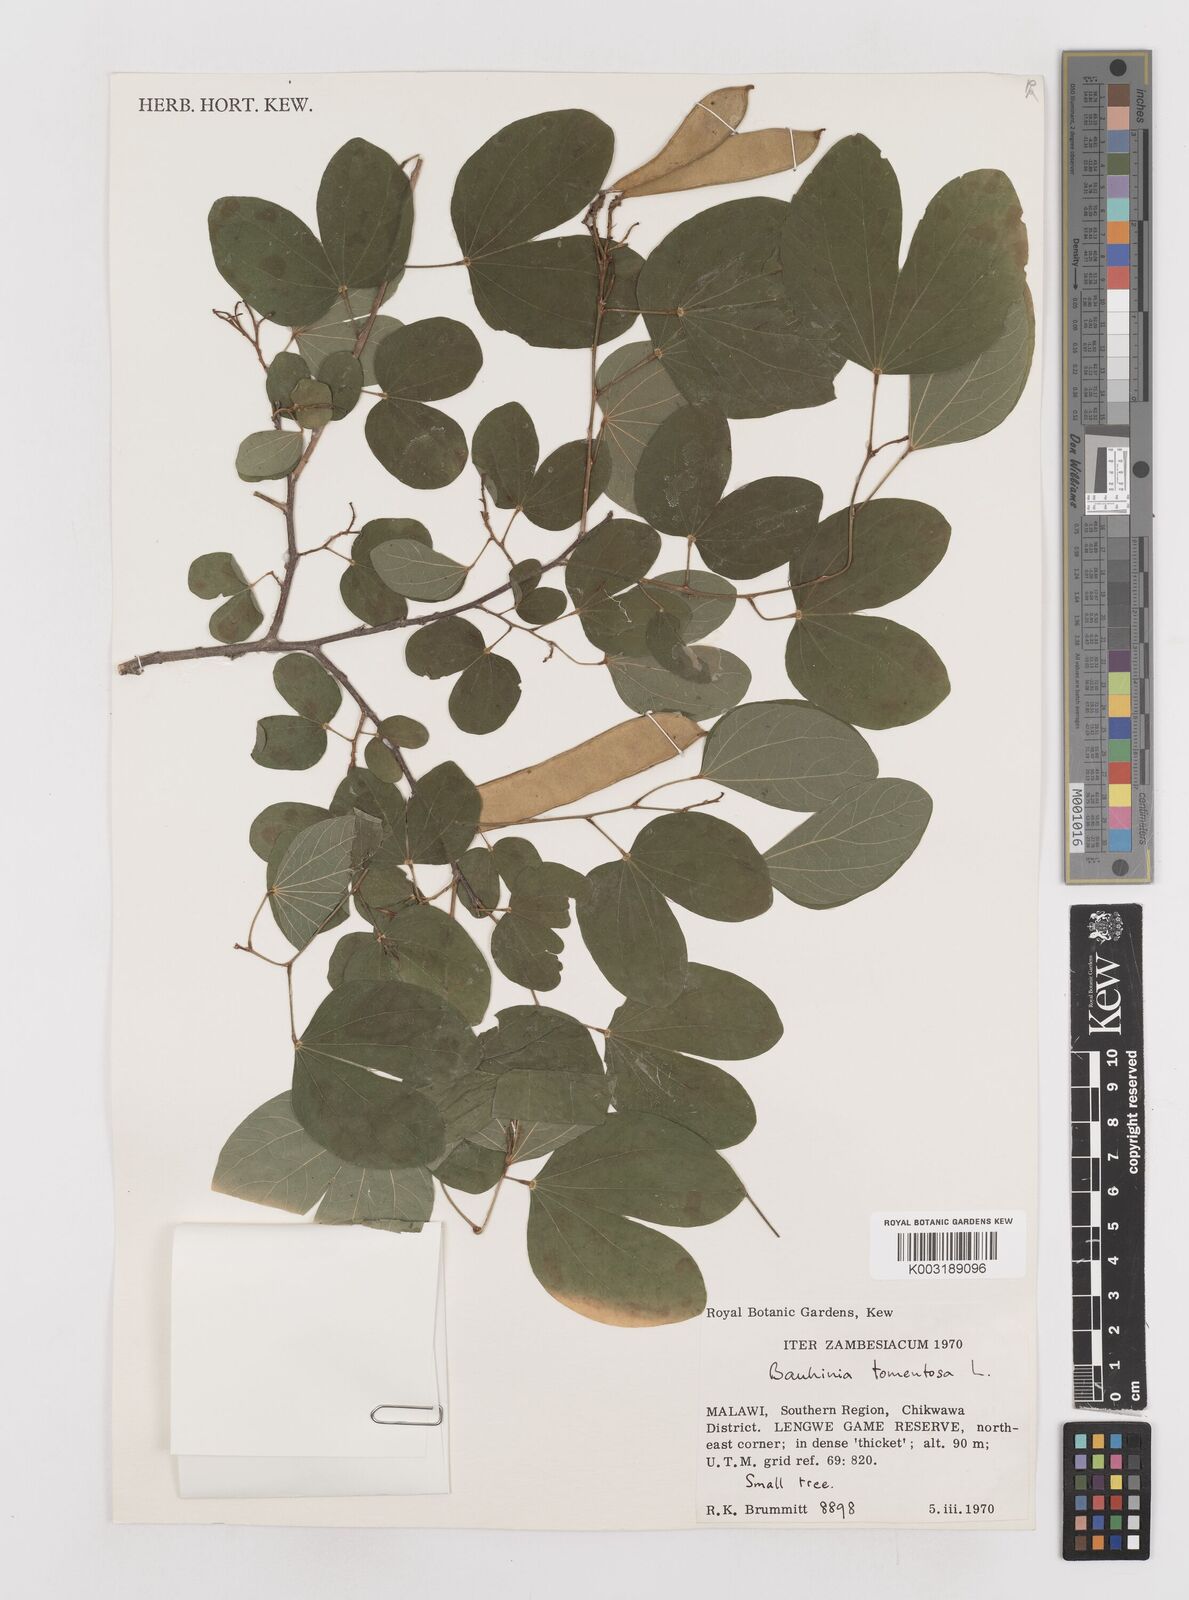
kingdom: Plantae
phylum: Tracheophyta
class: Magnoliopsida
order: Fabales
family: Fabaceae
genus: Bauhinia
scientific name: Bauhinia tomentosa
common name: Bell bauhinia
